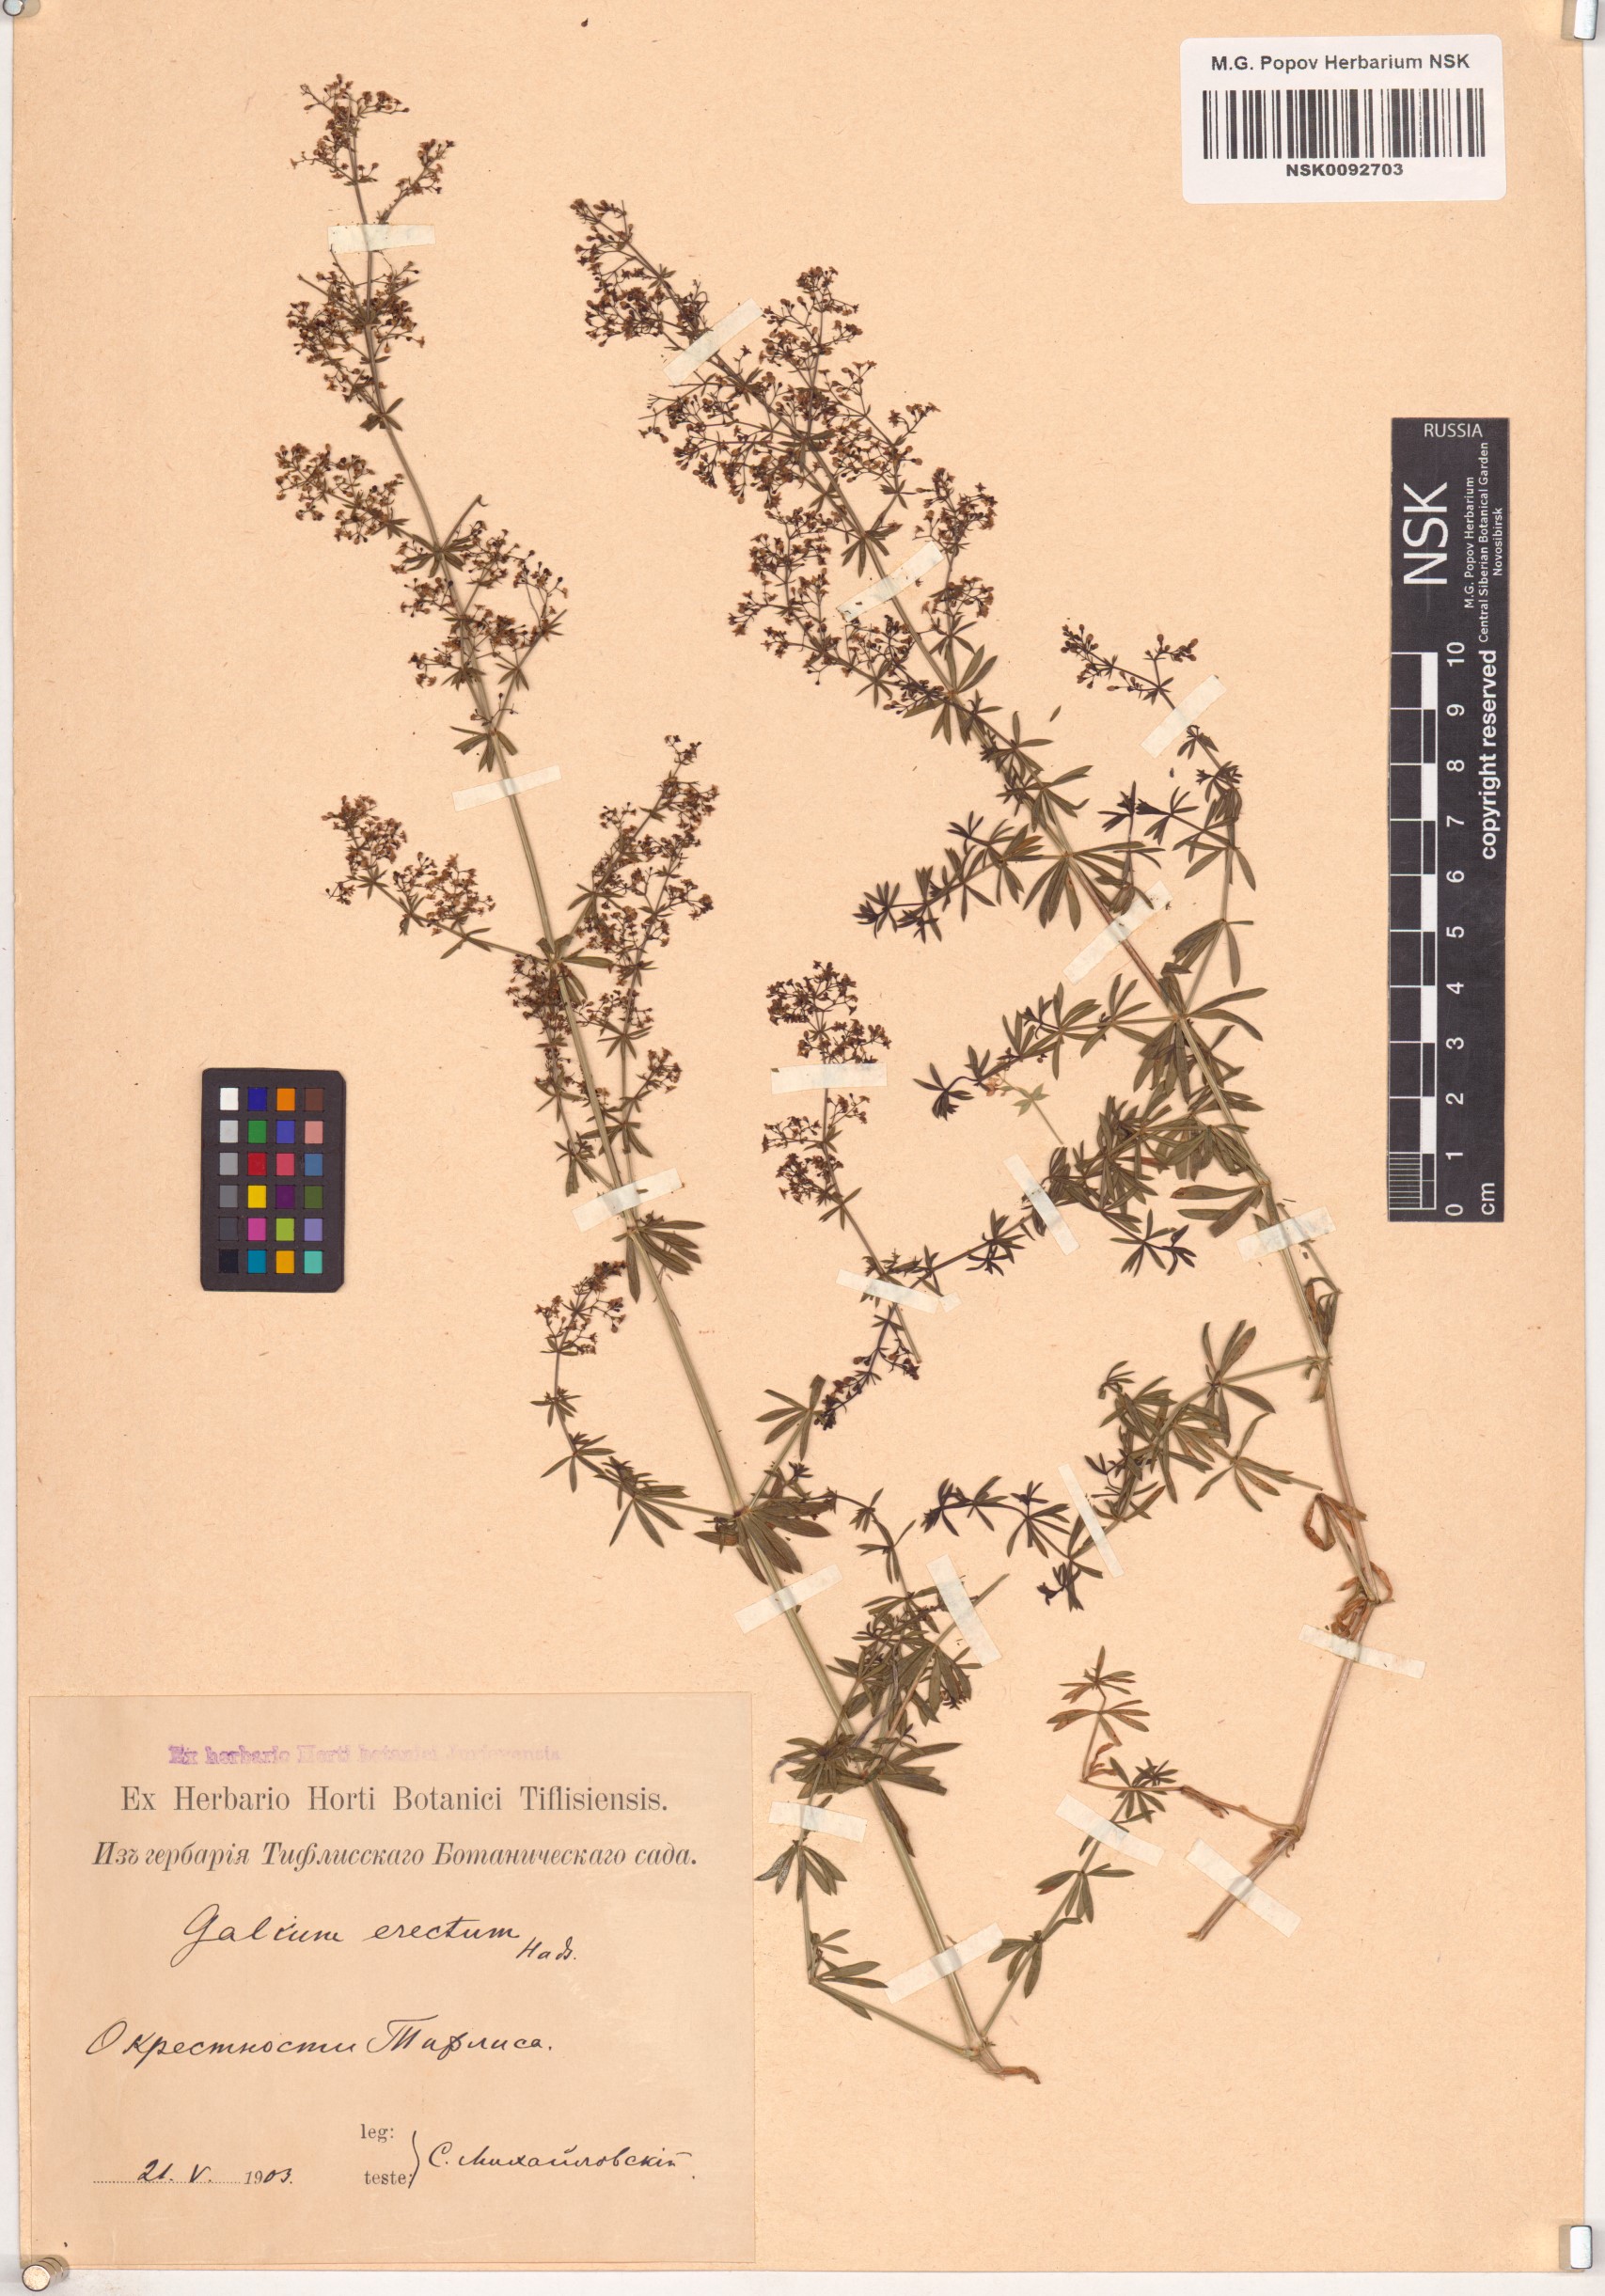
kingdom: Plantae
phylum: Tracheophyta
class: Magnoliopsida
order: Gentianales
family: Rubiaceae
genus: Galium
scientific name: Galium erectum
